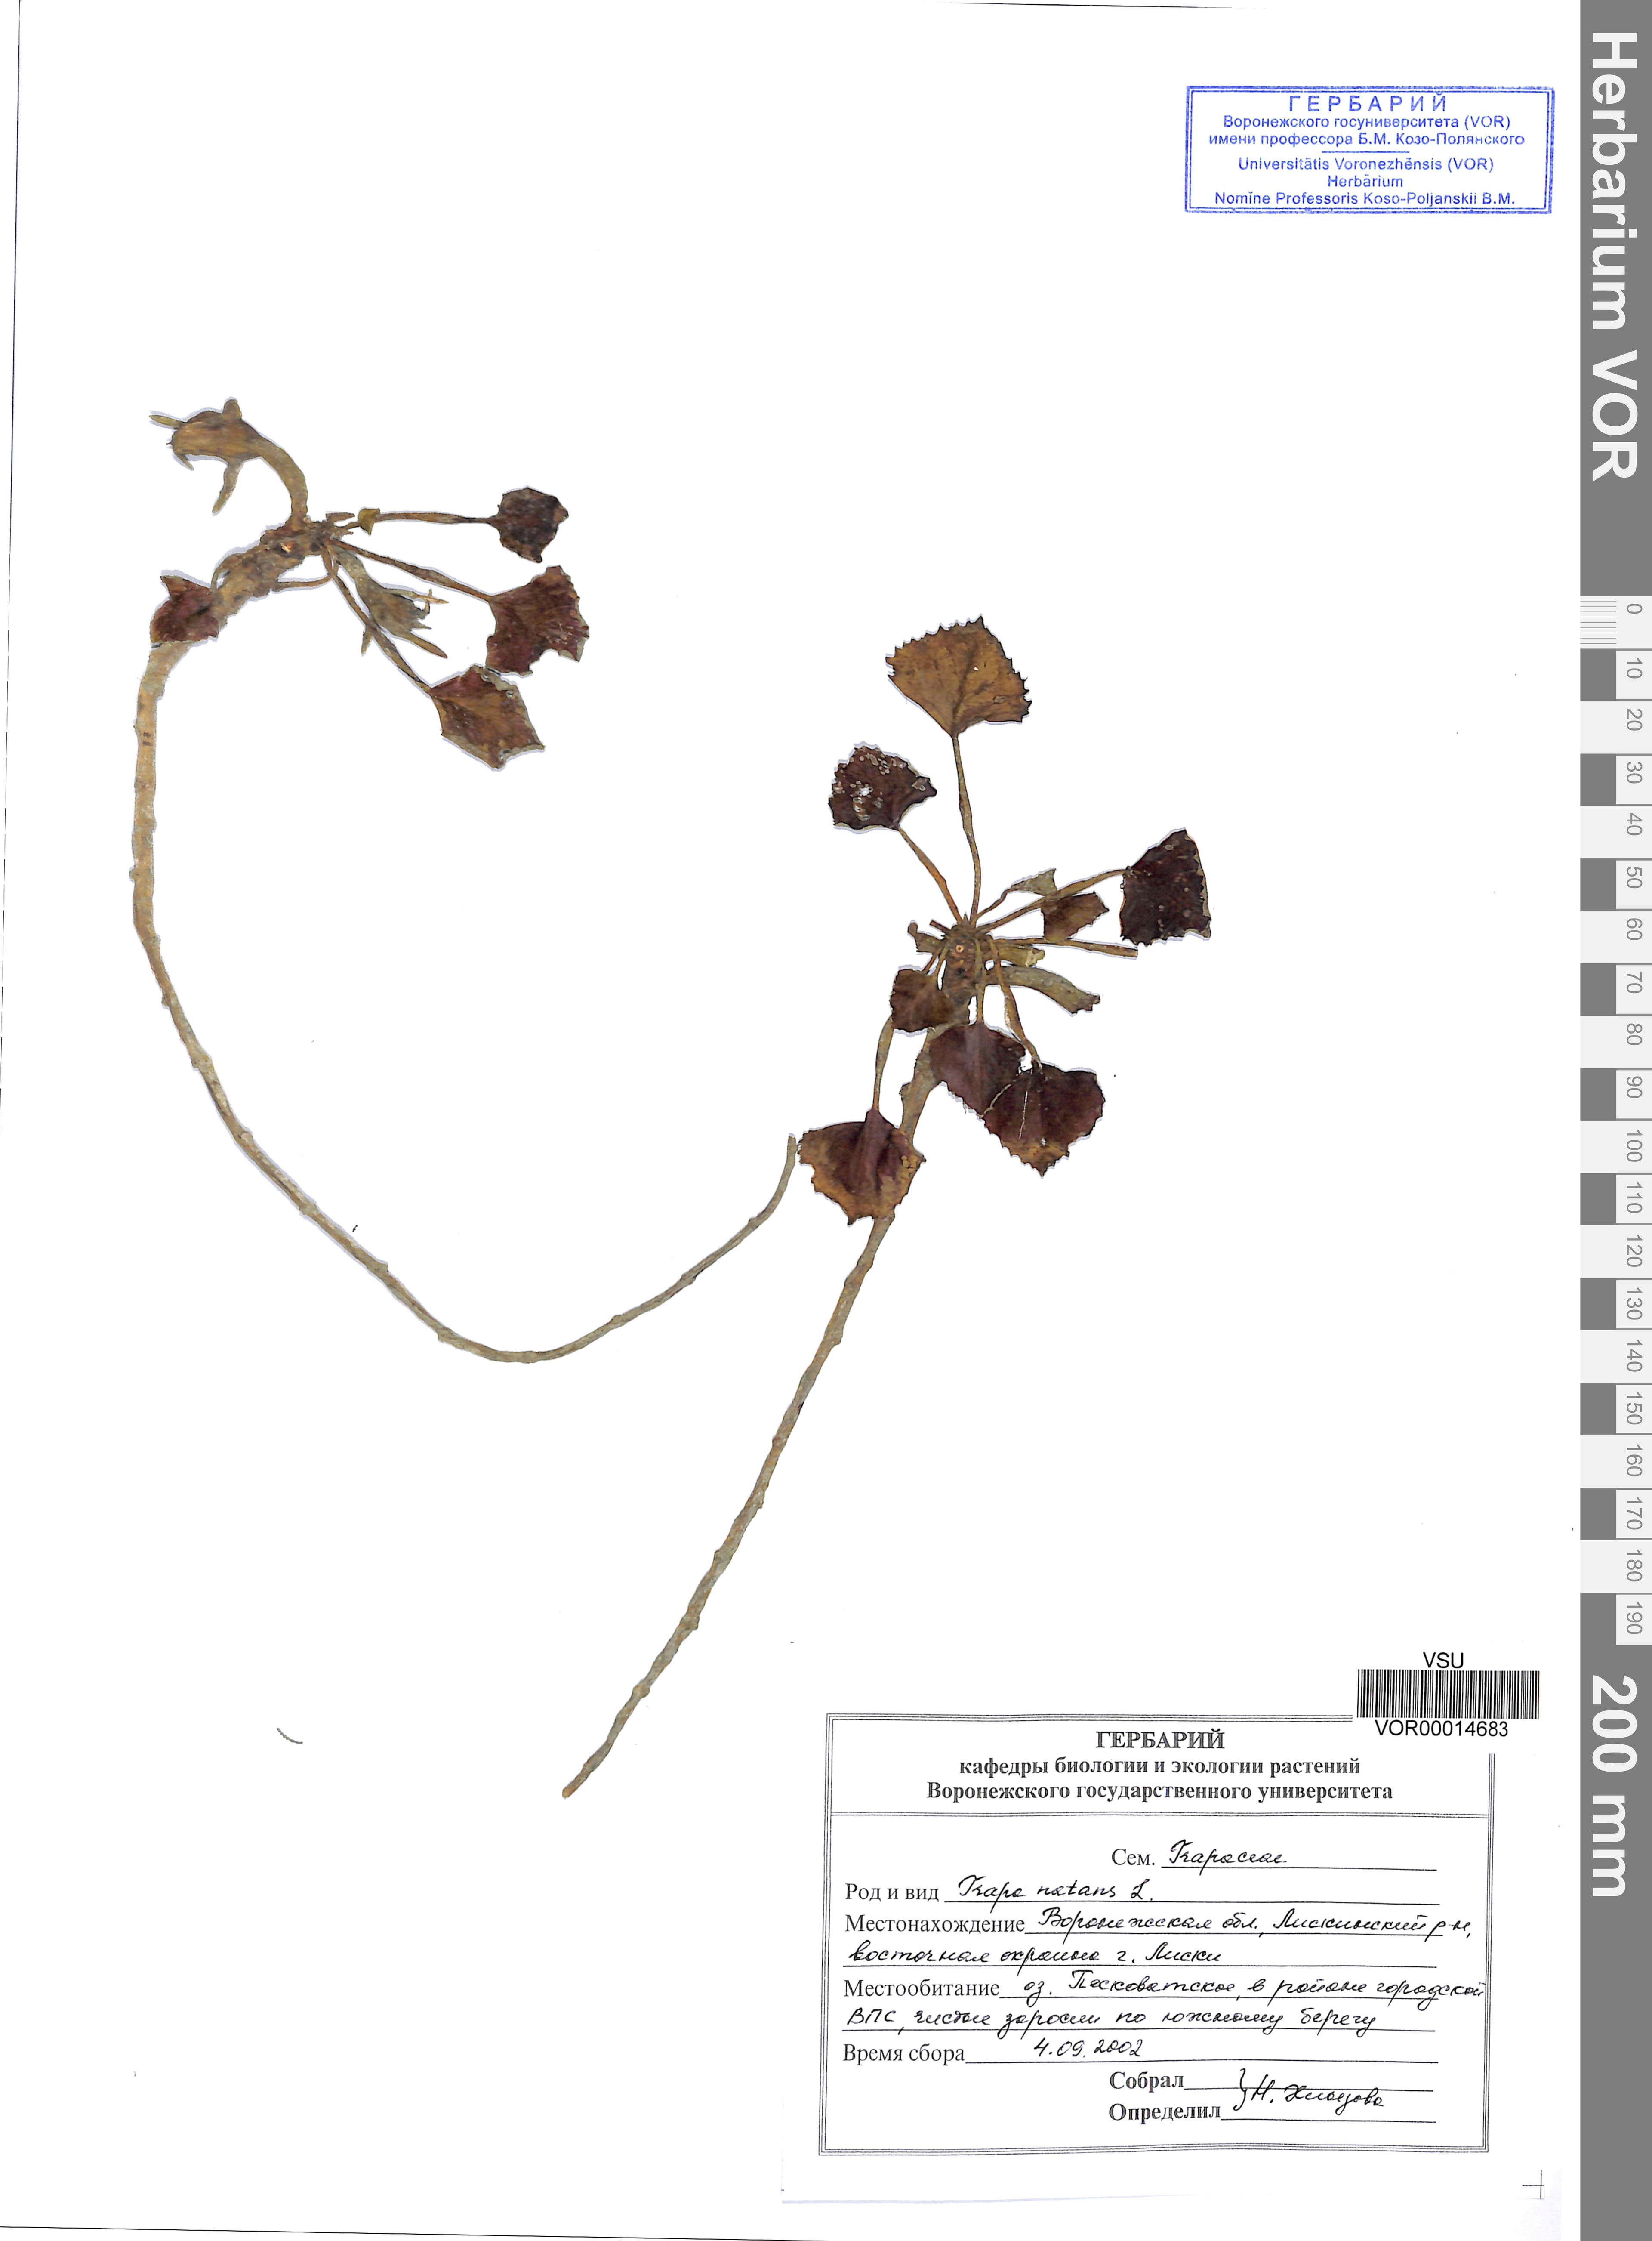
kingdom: Plantae
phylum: Tracheophyta
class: Magnoliopsida
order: Myrtales
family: Lythraceae
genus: Trapa
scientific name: Trapa natans
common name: Water chestnut
